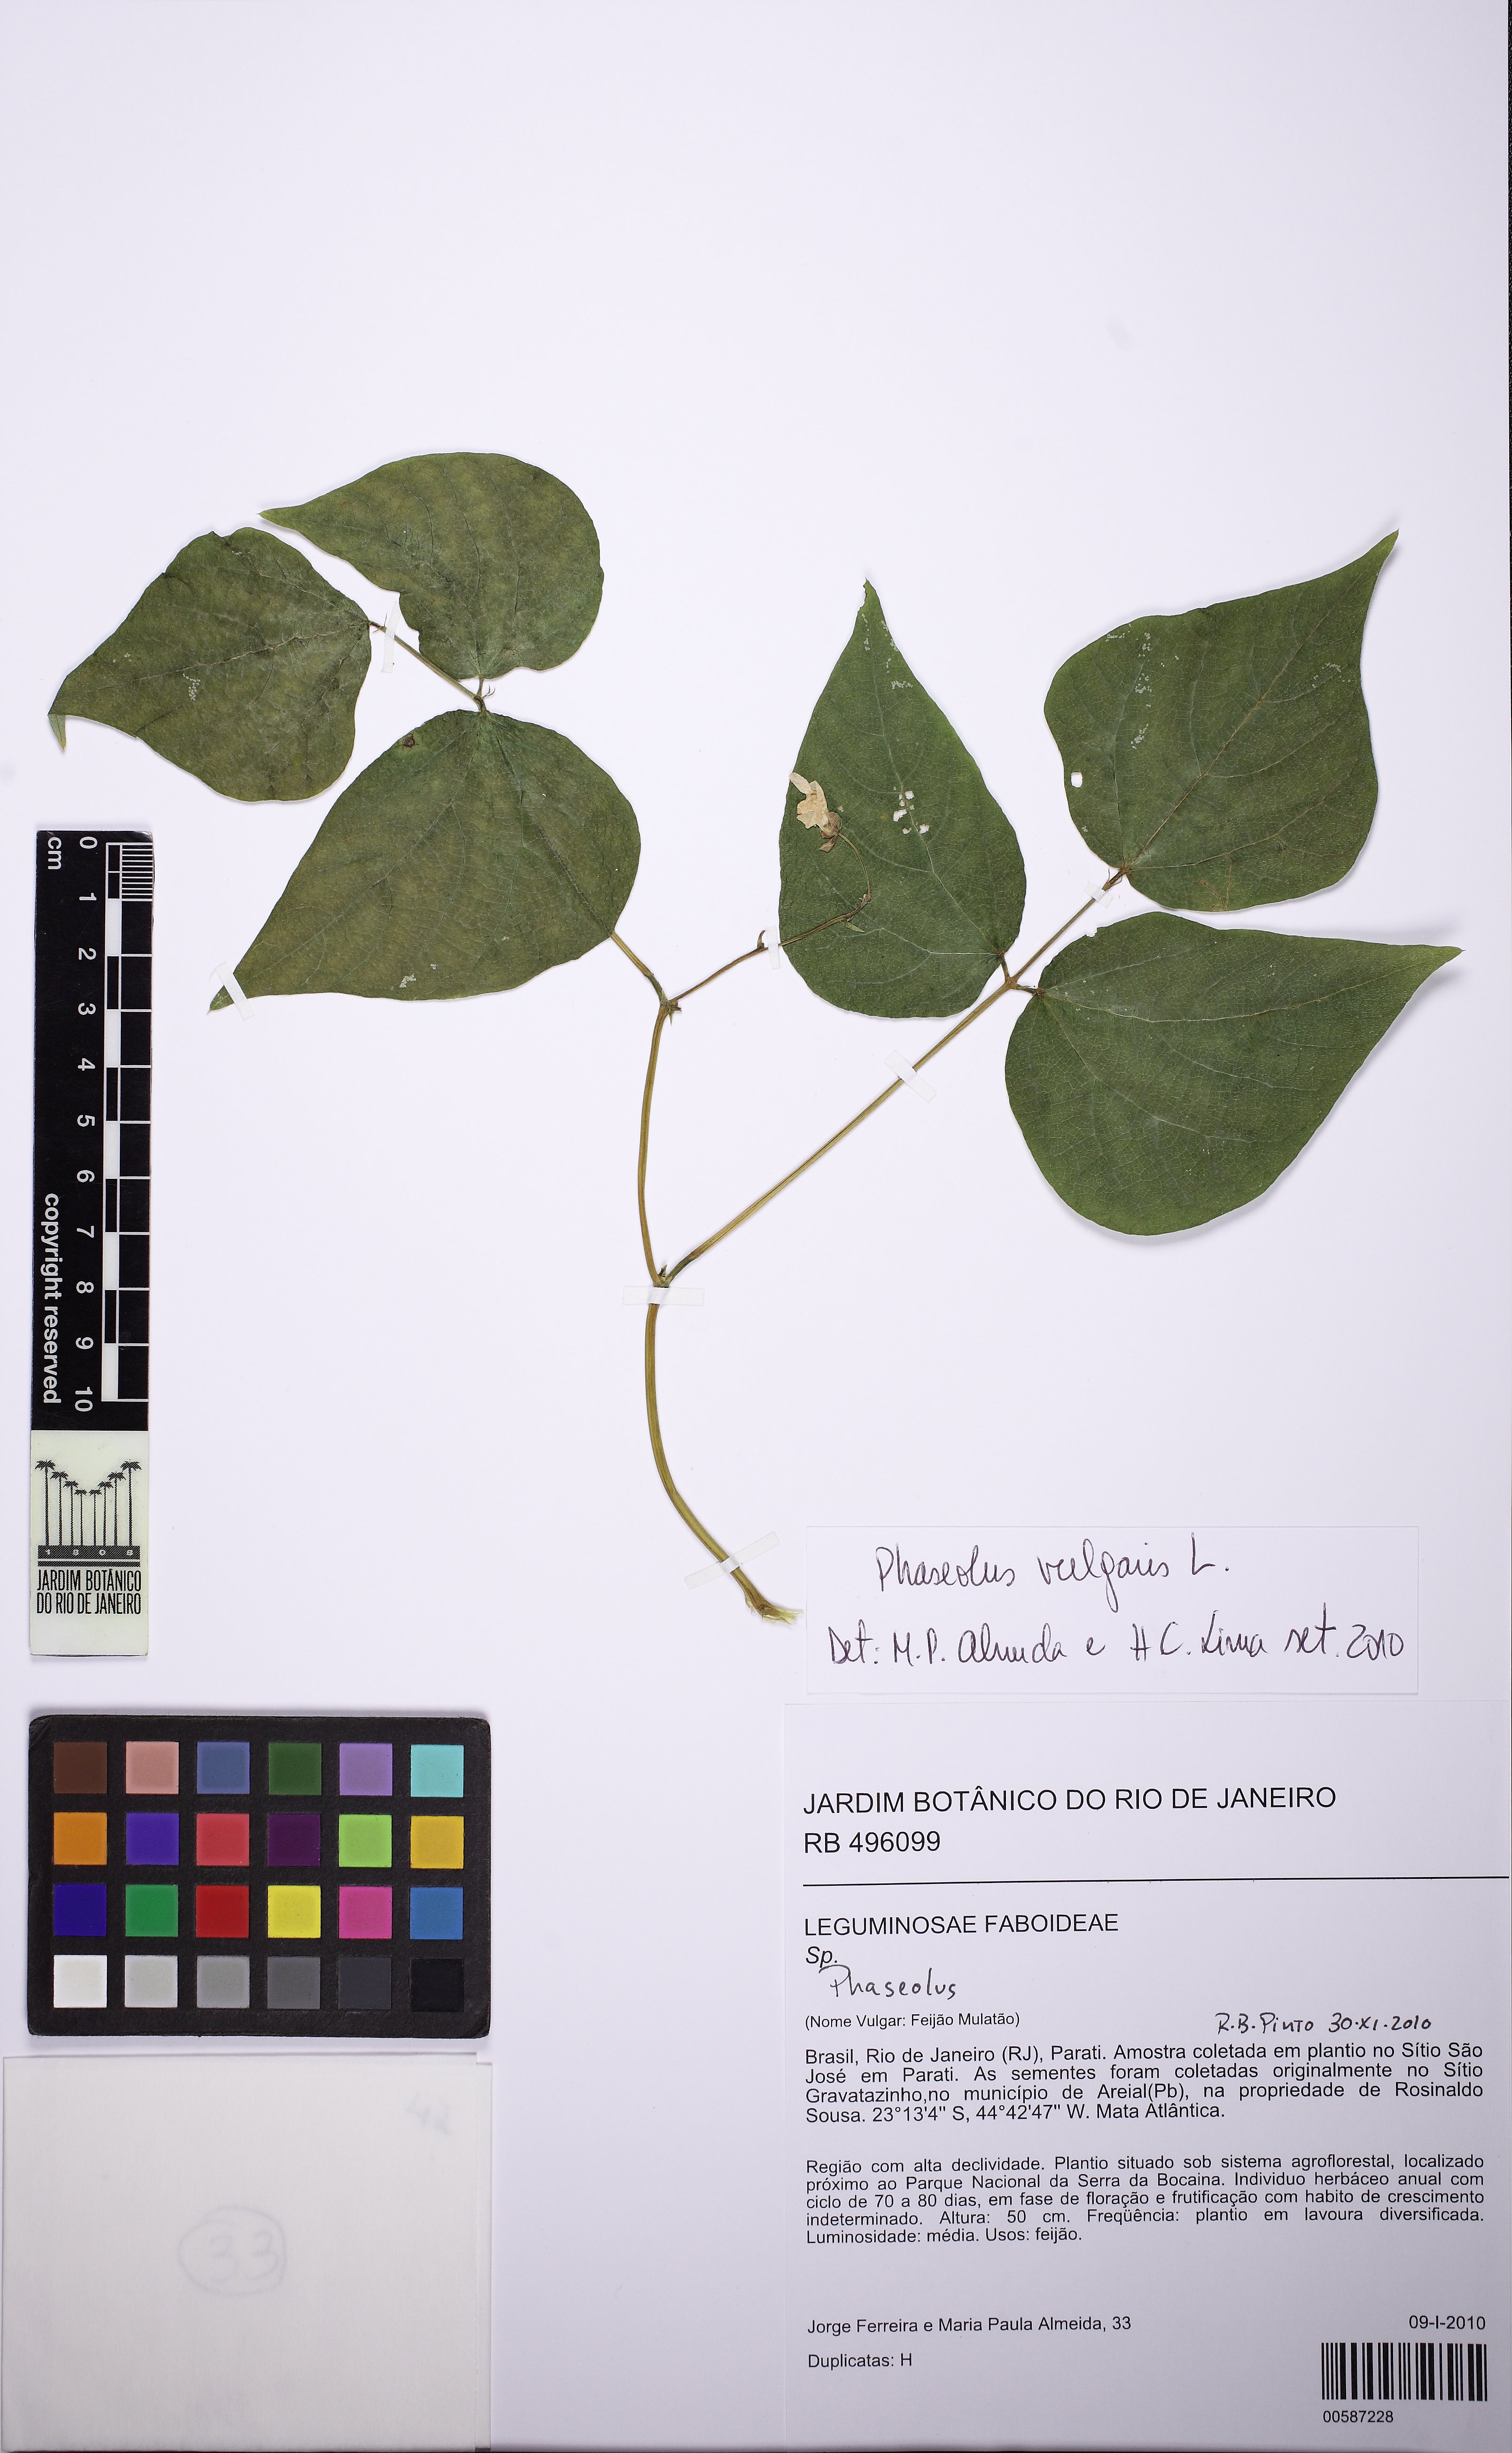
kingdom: Plantae
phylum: Tracheophyta
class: Magnoliopsida
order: Fabales
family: Fabaceae
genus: Phaseolus
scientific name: Phaseolus vulgaris
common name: Bean
